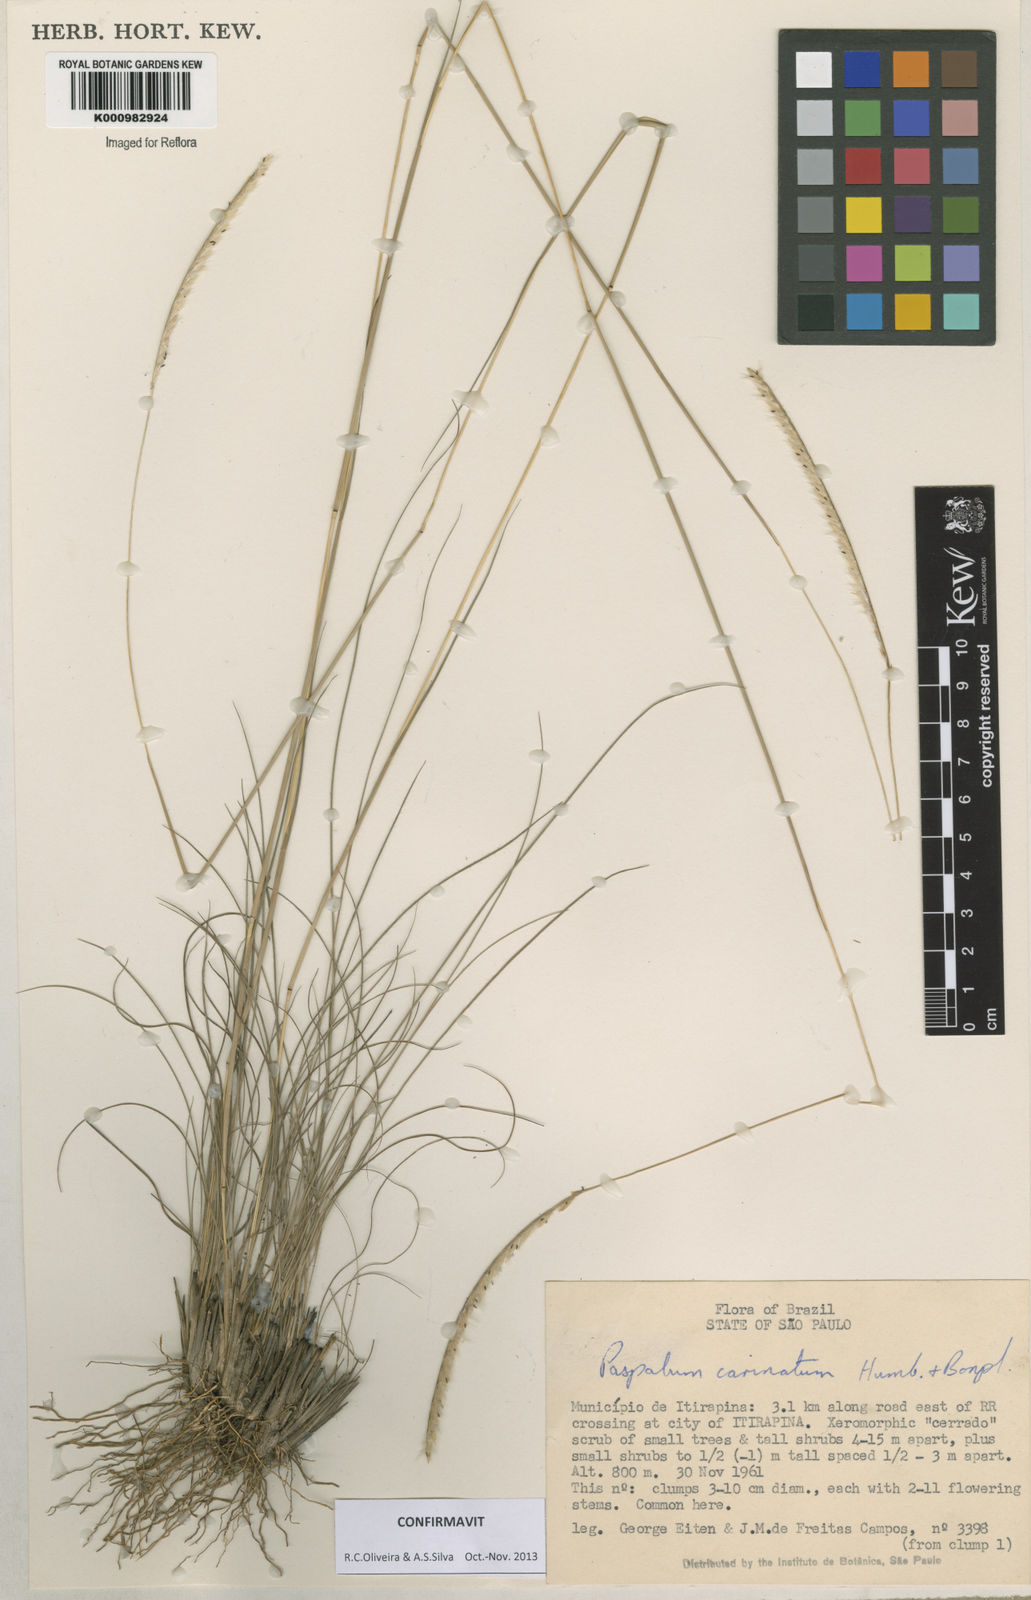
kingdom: Plantae
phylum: Tracheophyta
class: Liliopsida
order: Poales
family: Poaceae
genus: Paspalum
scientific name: Paspalum
